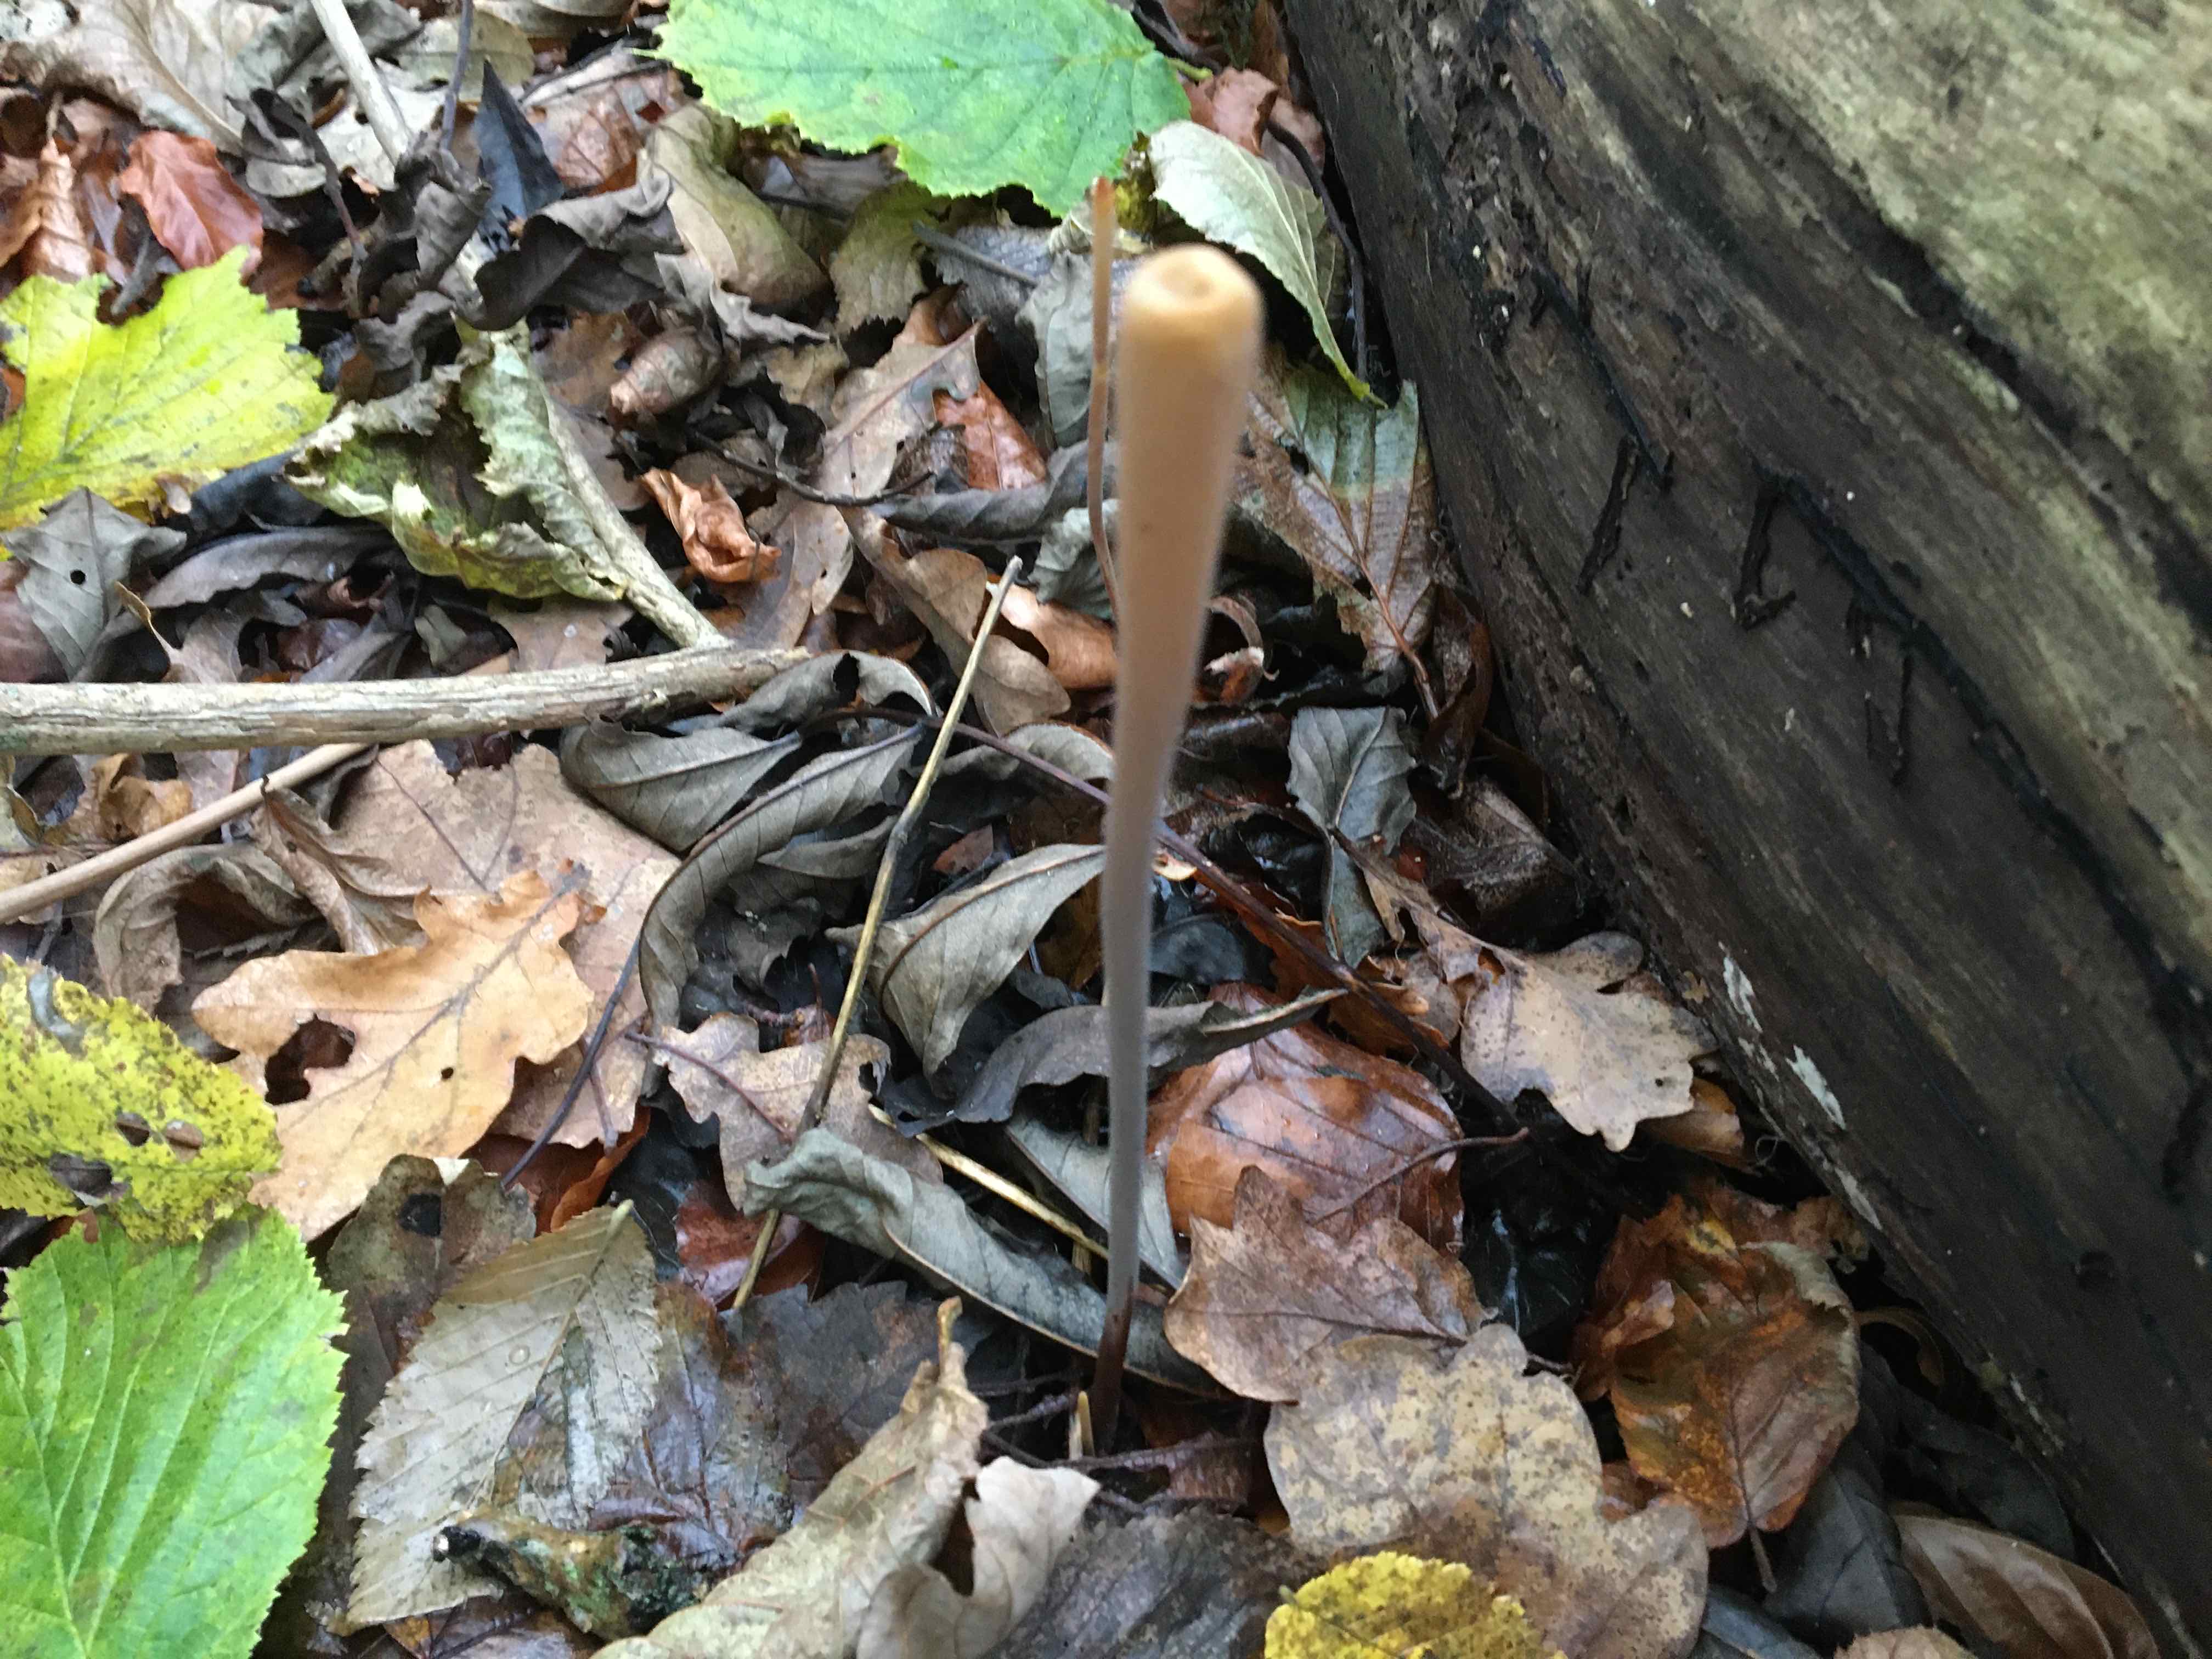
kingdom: Fungi
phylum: Basidiomycota
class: Agaricomycetes
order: Agaricales
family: Typhulaceae
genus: Typhula
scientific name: Typhula fistulosa
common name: pibet rørkølle
